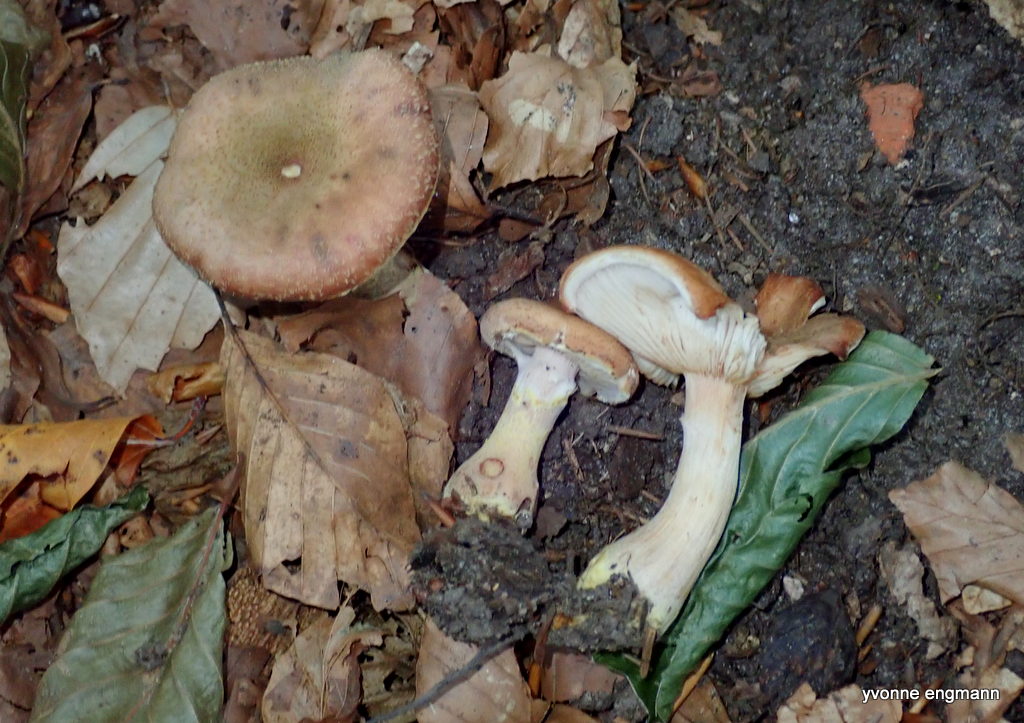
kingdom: Fungi
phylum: Basidiomycota
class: Agaricomycetes
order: Agaricales
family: Physalacriaceae
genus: Armillaria
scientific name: Armillaria lutea
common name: køllestokket honningsvamp
